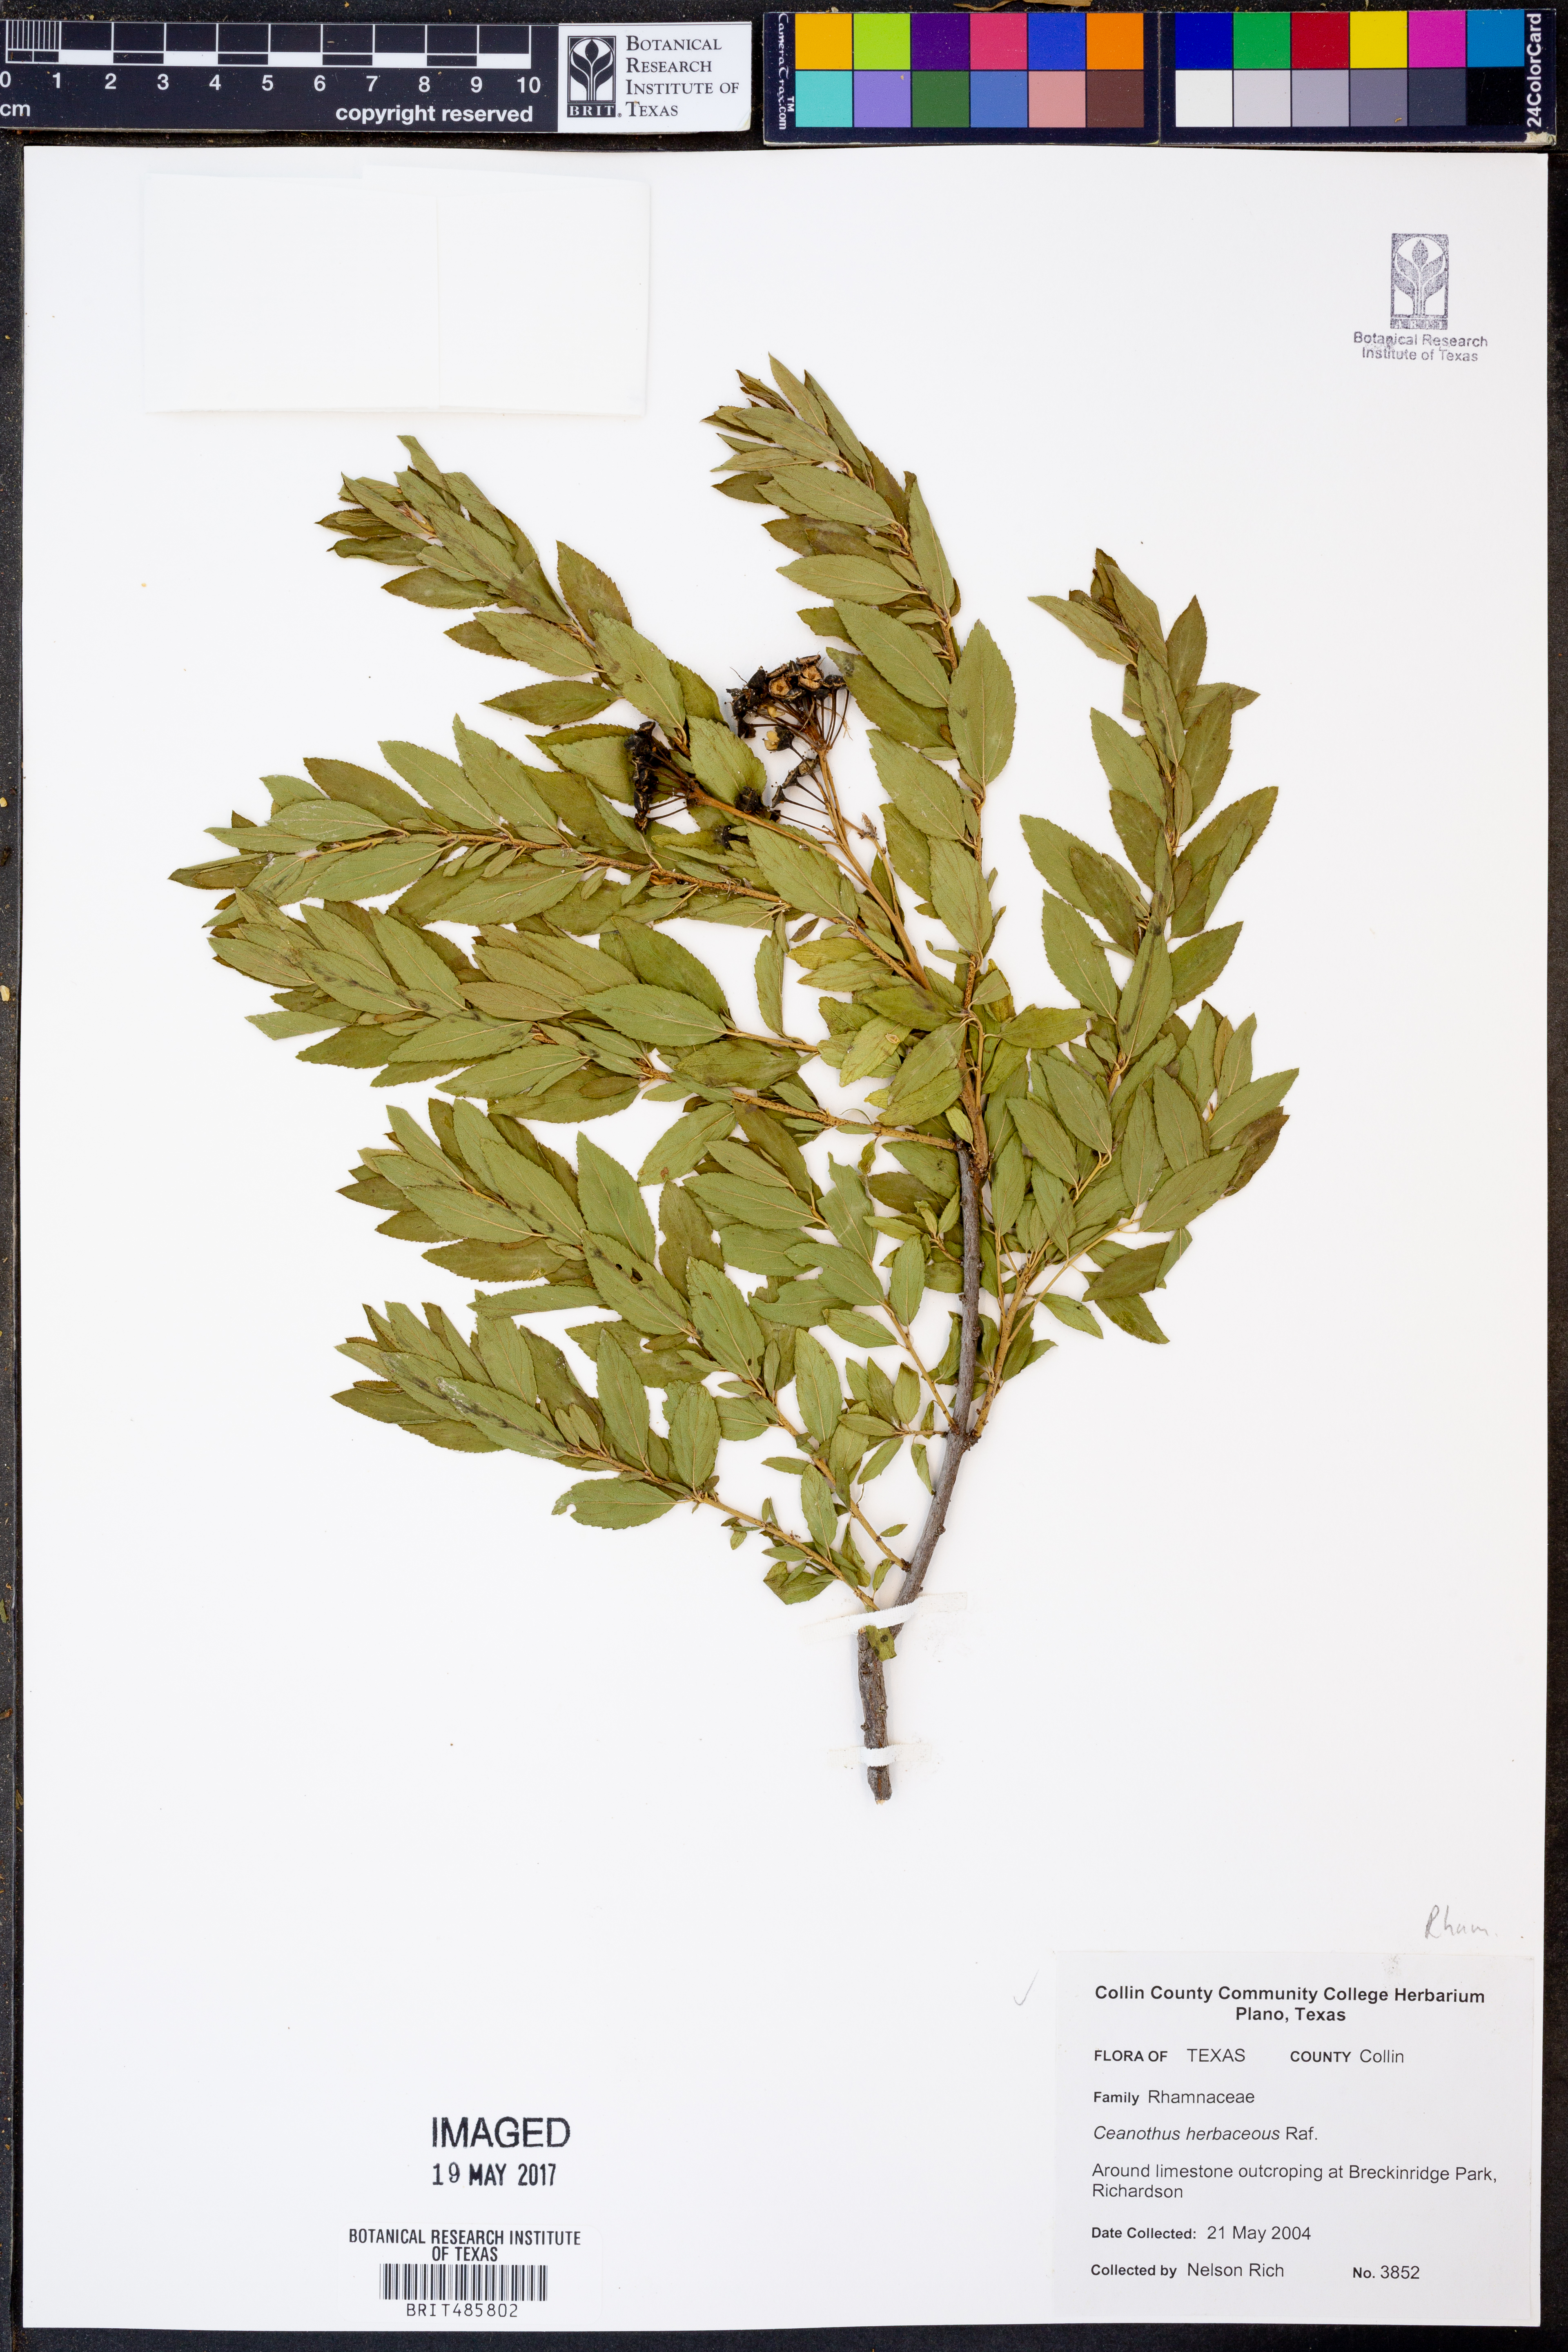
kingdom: Plantae
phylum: Tracheophyta
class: Magnoliopsida
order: Rosales
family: Rhamnaceae
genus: Ceanothus
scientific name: Ceanothus herbaceus
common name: Inland ceanothus
